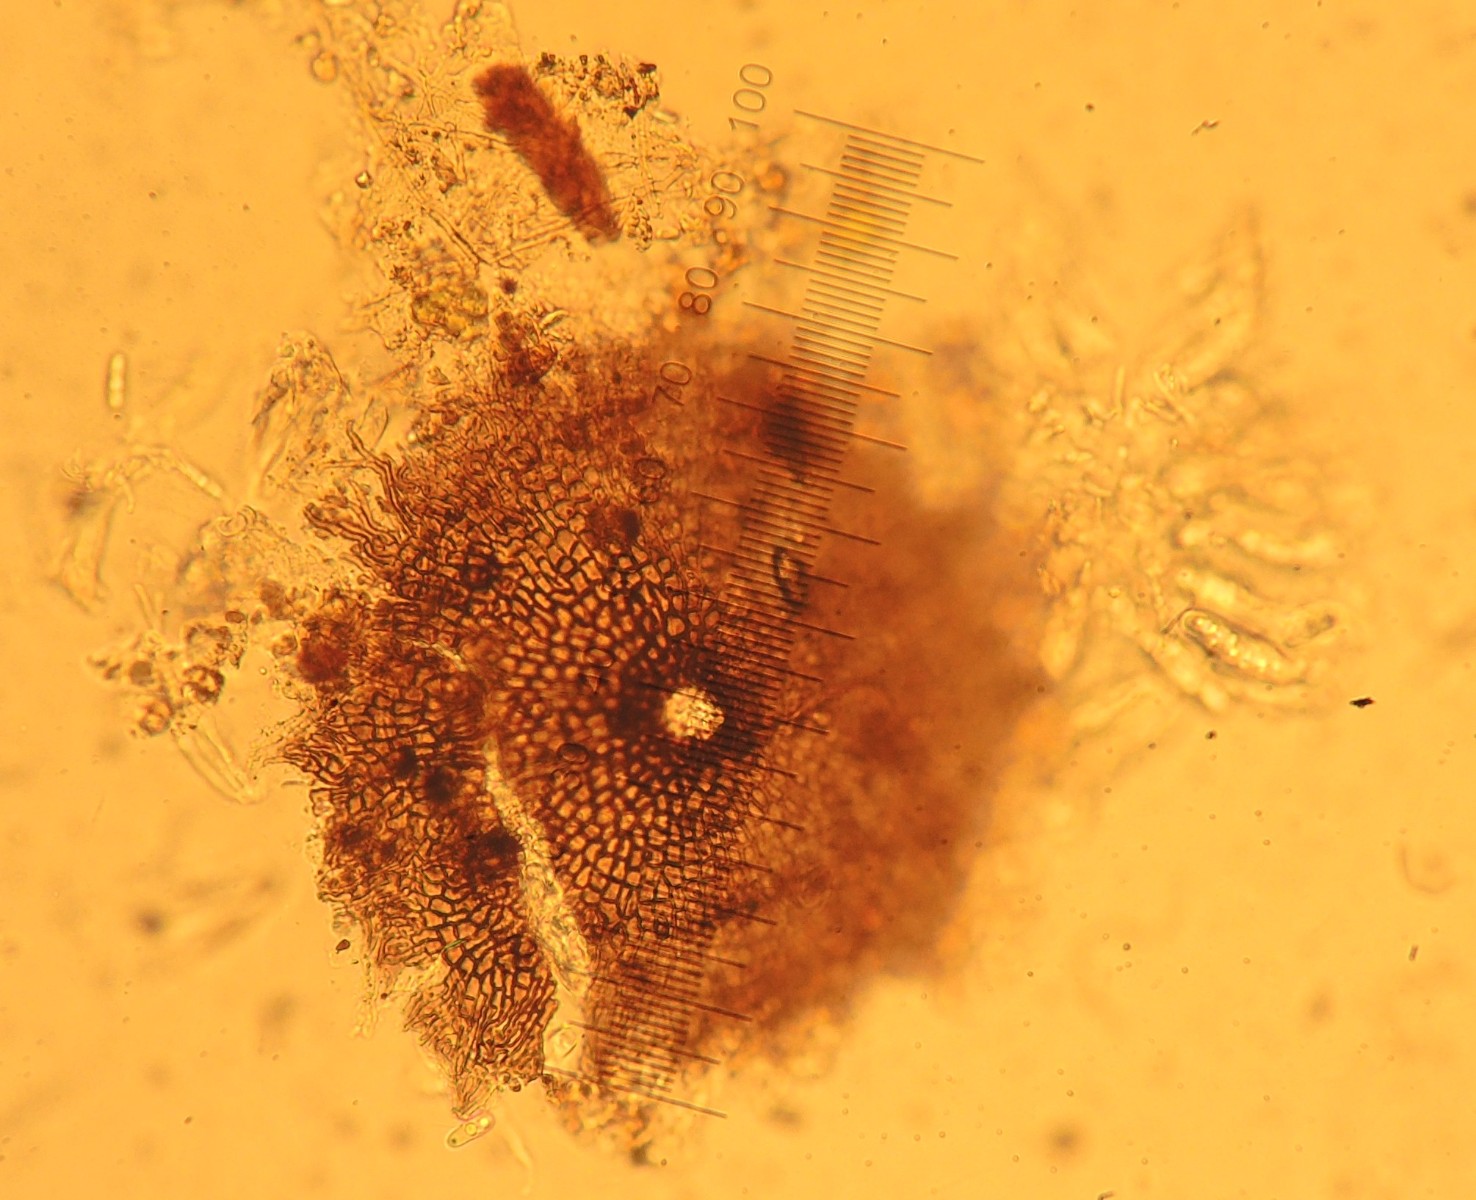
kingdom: Fungi
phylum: Ascomycota
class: Dothideomycetes
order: Microthyriales
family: Microthyriaceae
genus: Microthyrium
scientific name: Microthyrium macrosporum
